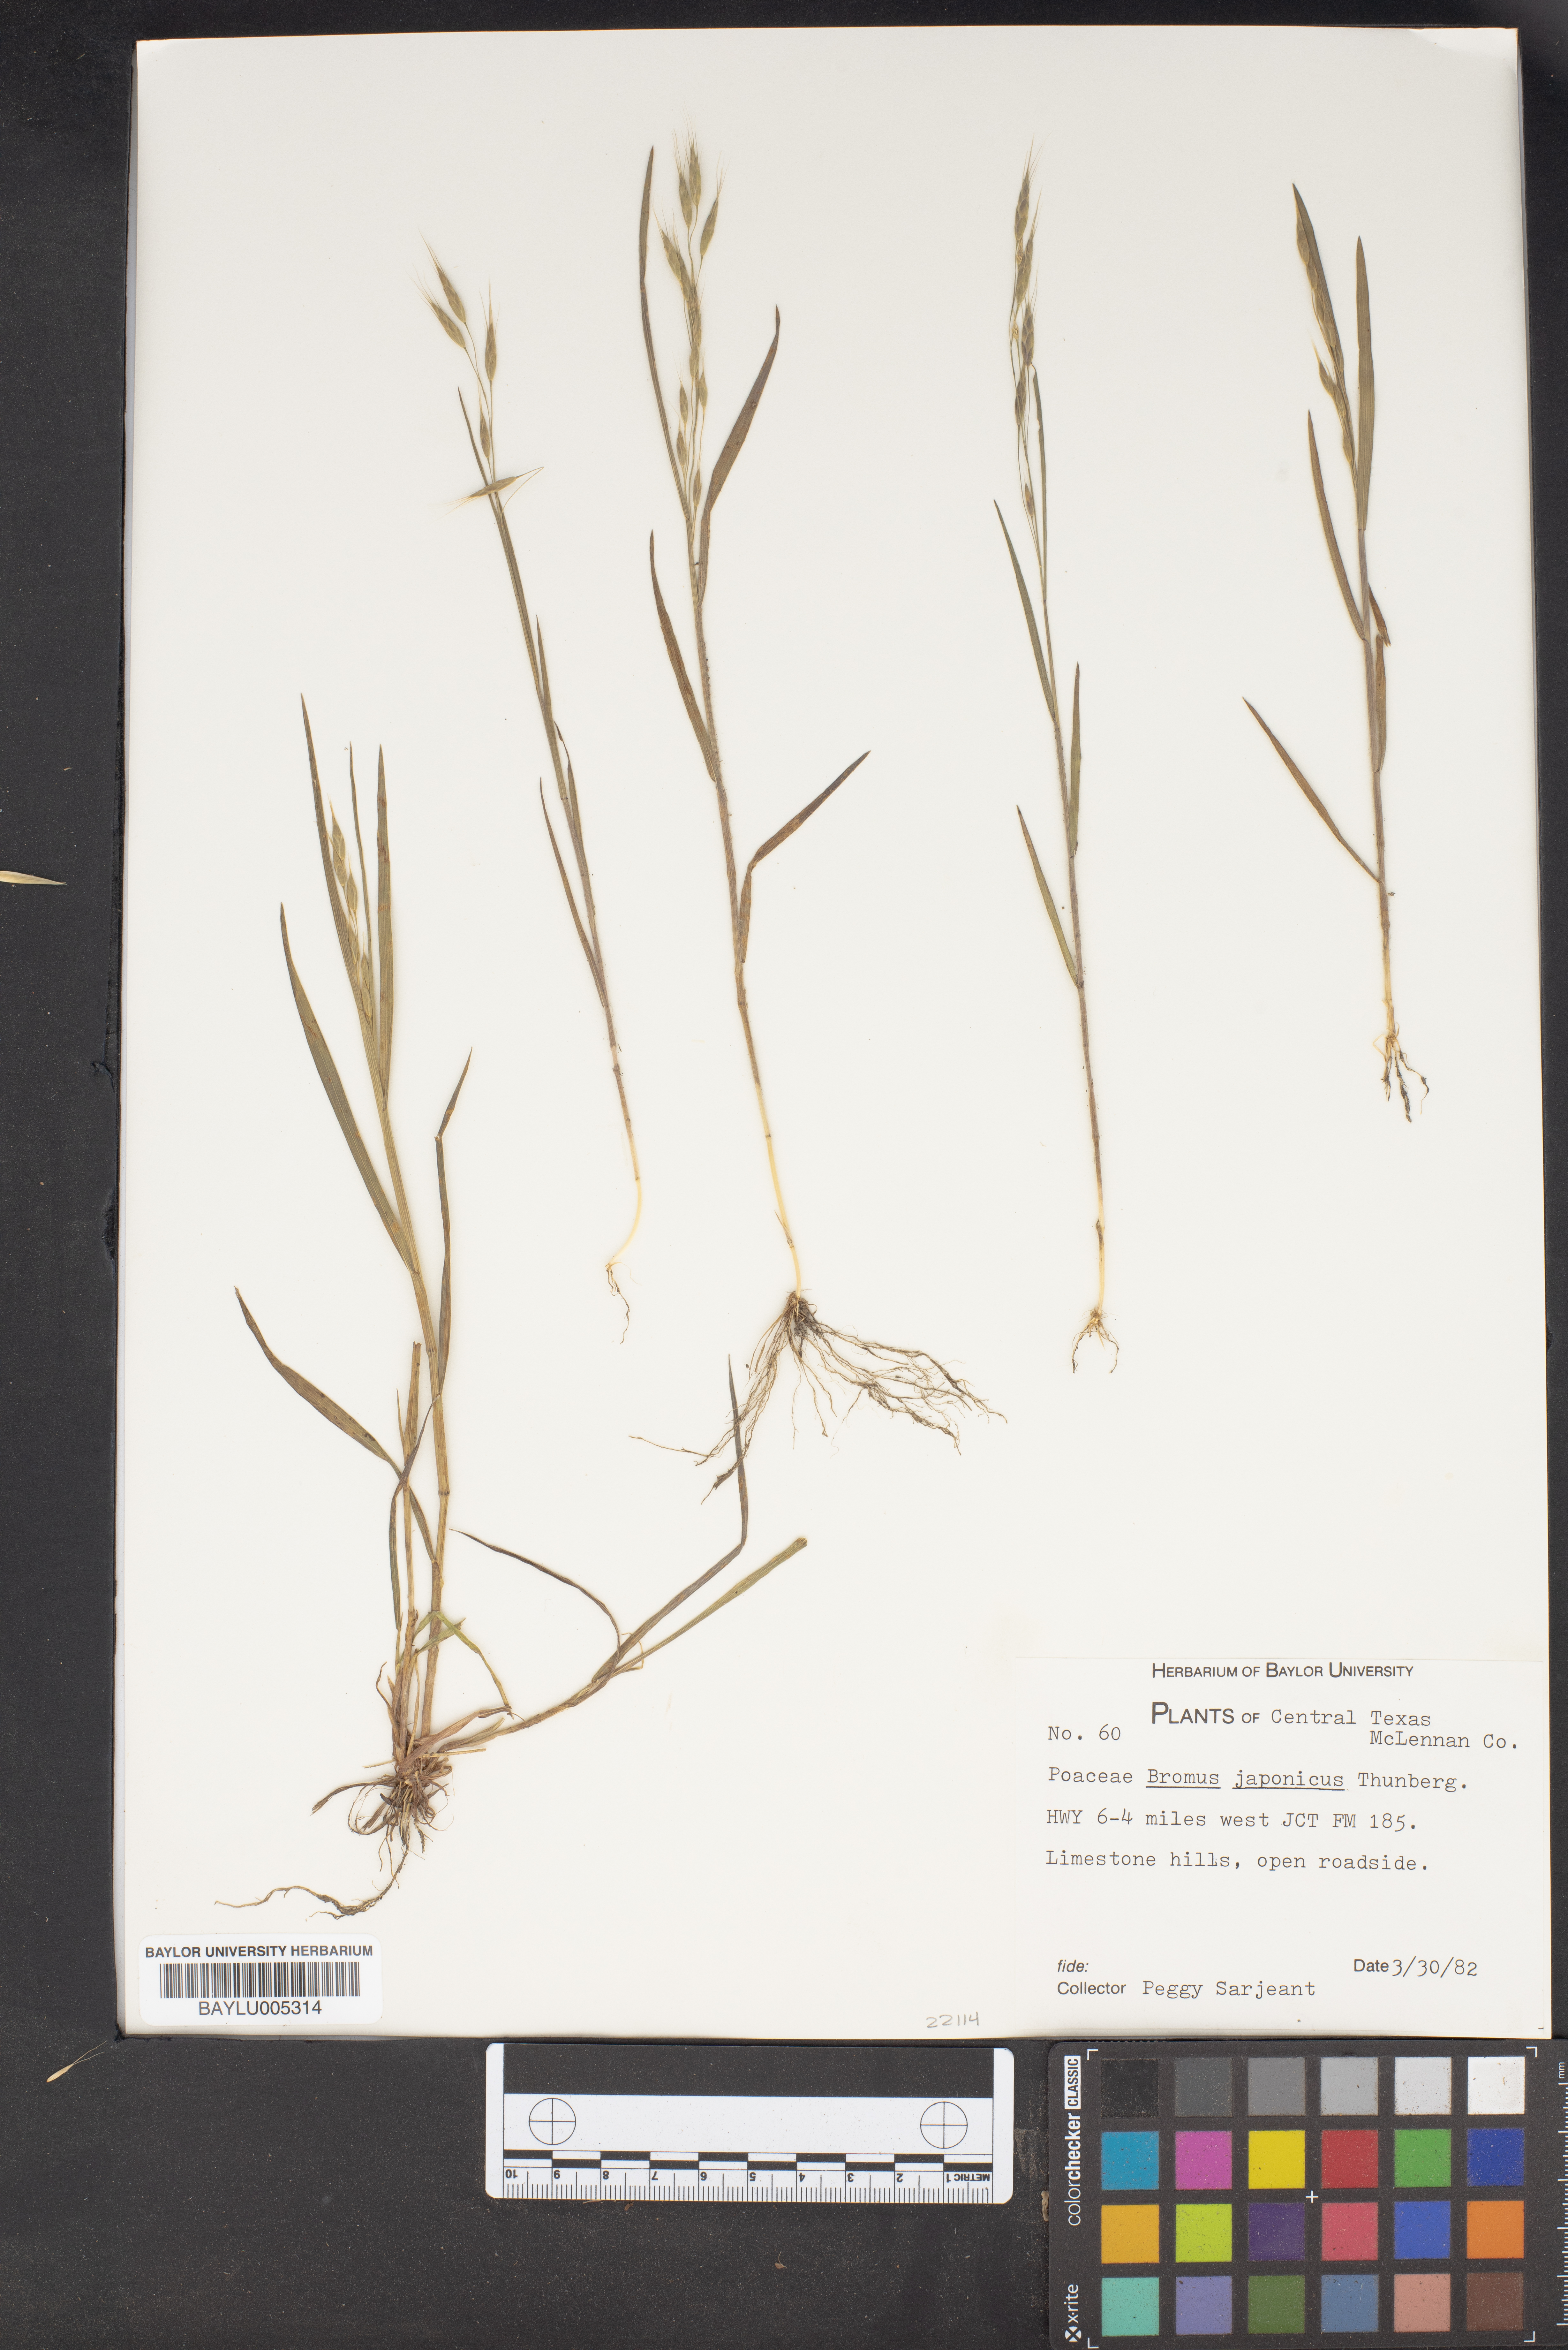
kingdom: Plantae
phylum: Tracheophyta
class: Liliopsida
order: Poales
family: Poaceae
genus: Bromus
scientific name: Bromus japonicus
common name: Japanese brome
